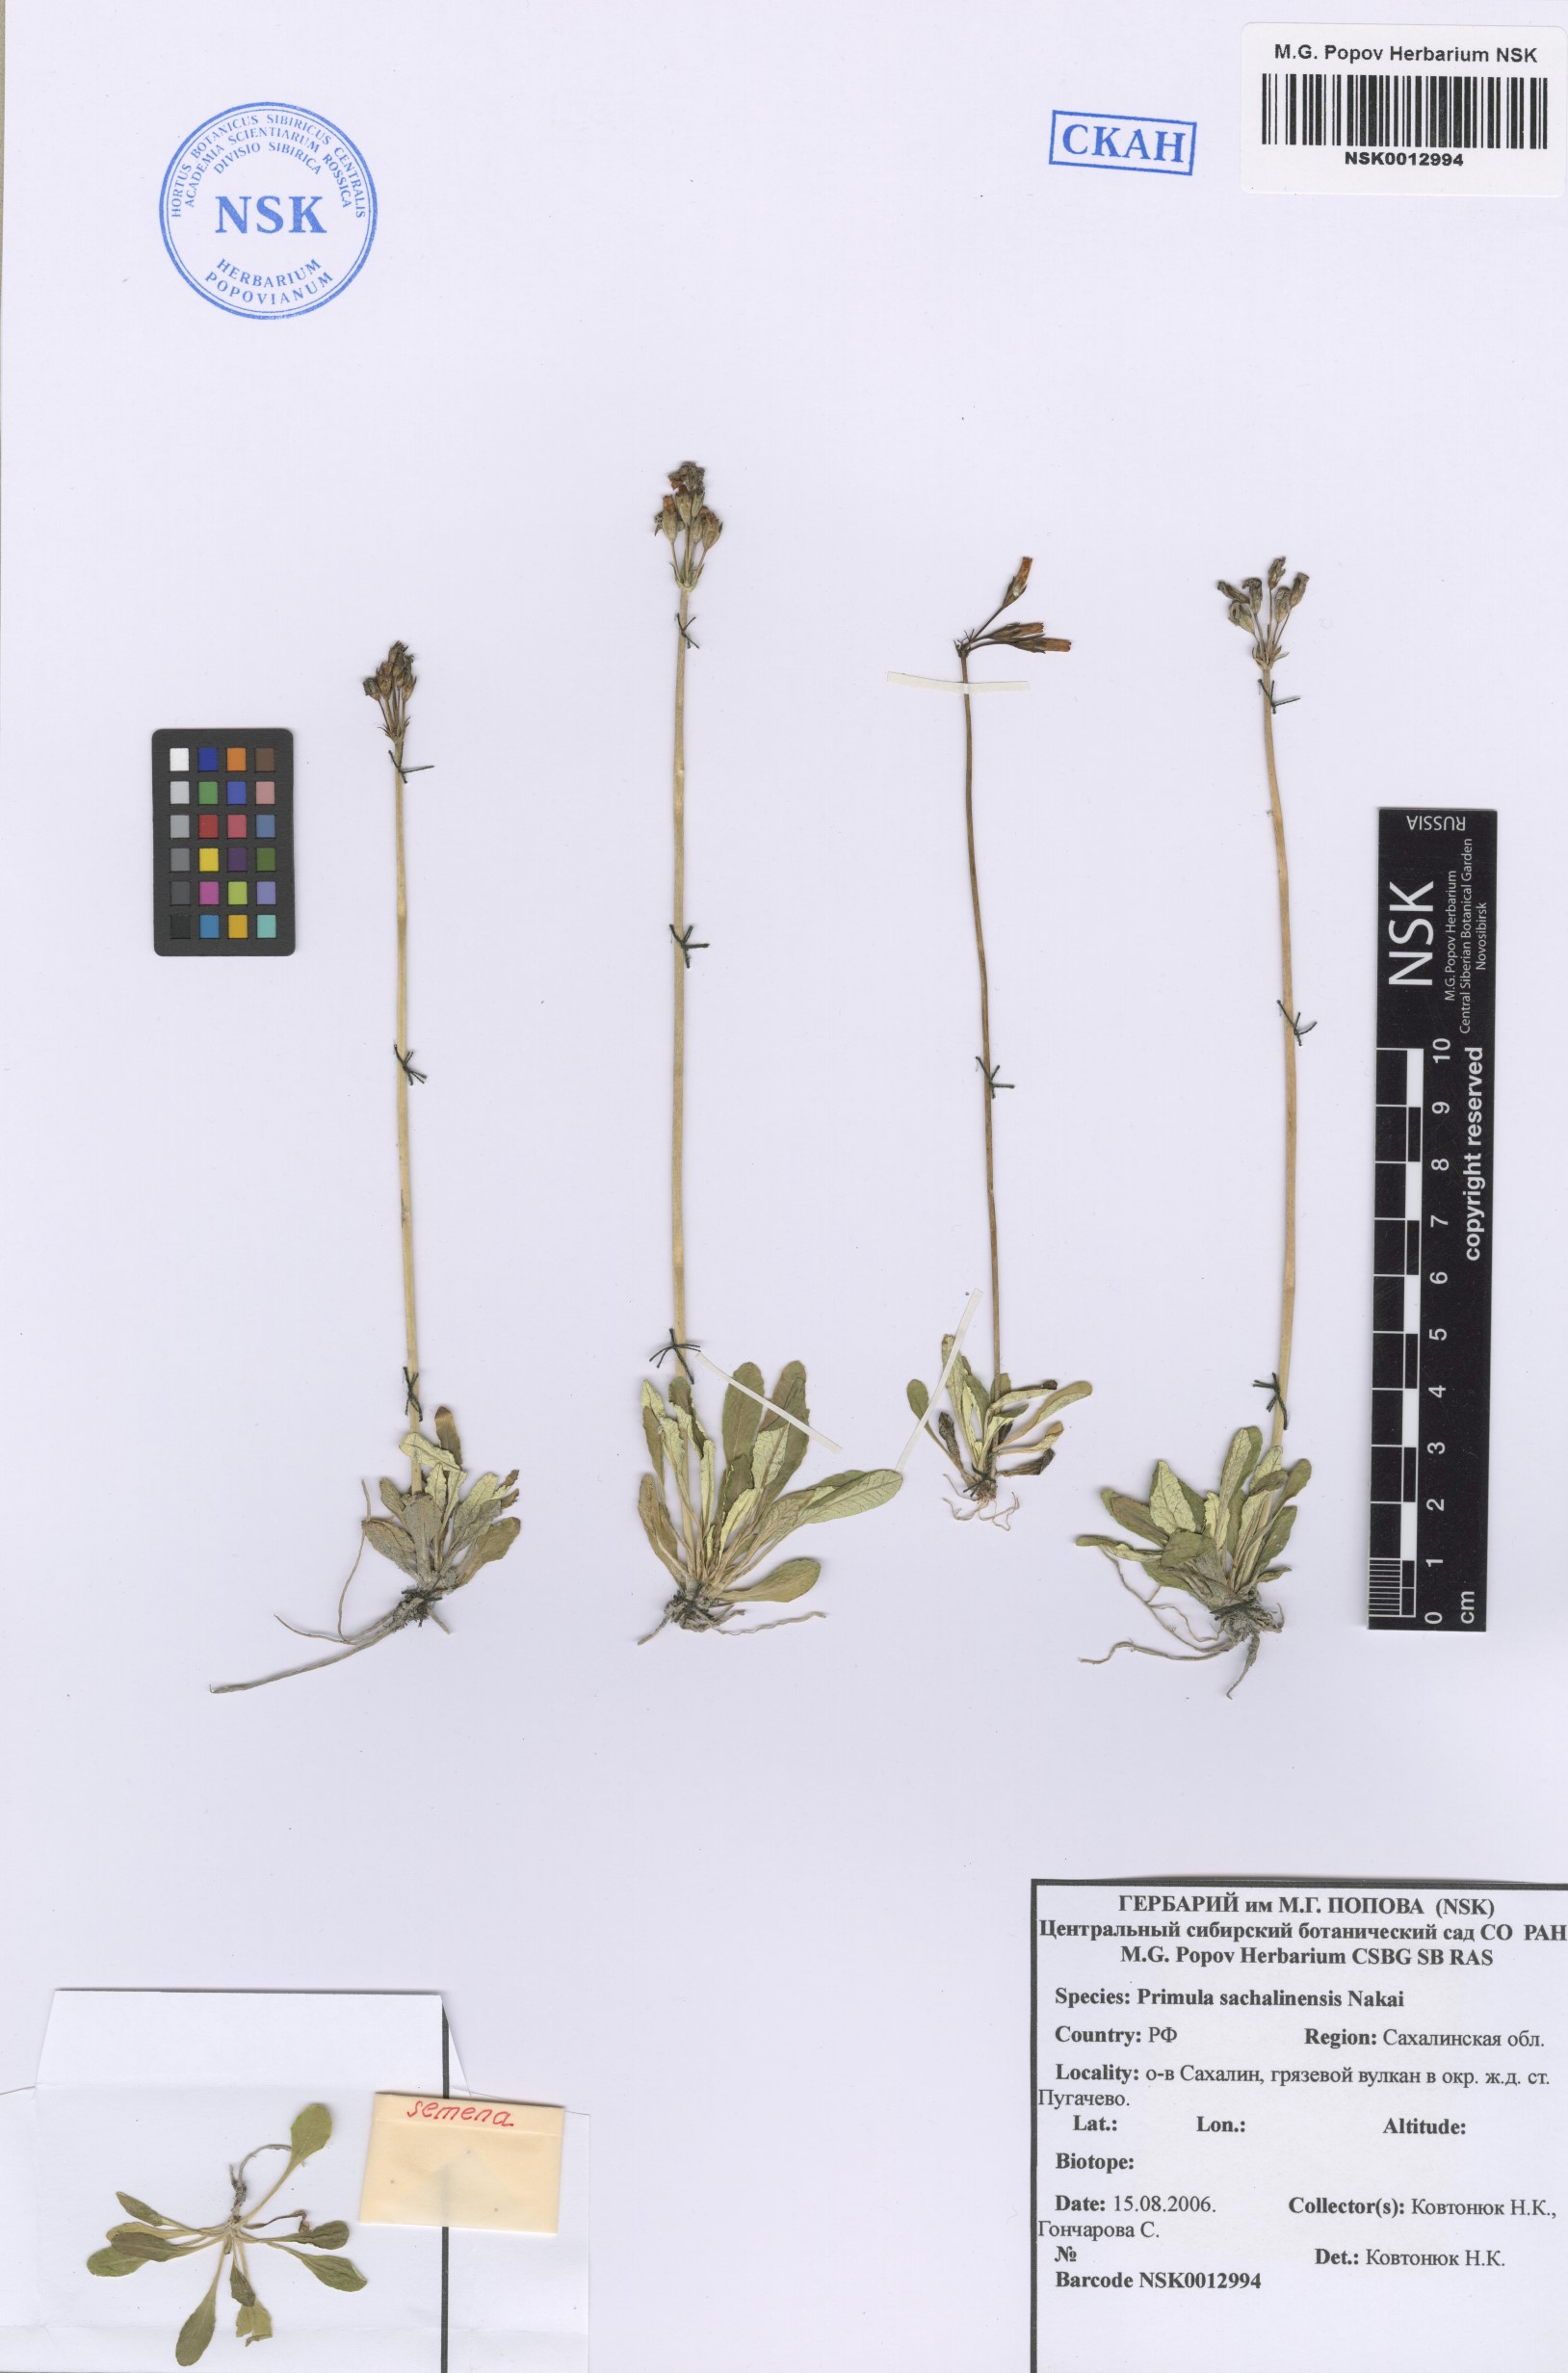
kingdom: Plantae
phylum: Tracheophyta
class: Magnoliopsida
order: Ericales
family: Primulaceae
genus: Primula
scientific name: Primula modesta
